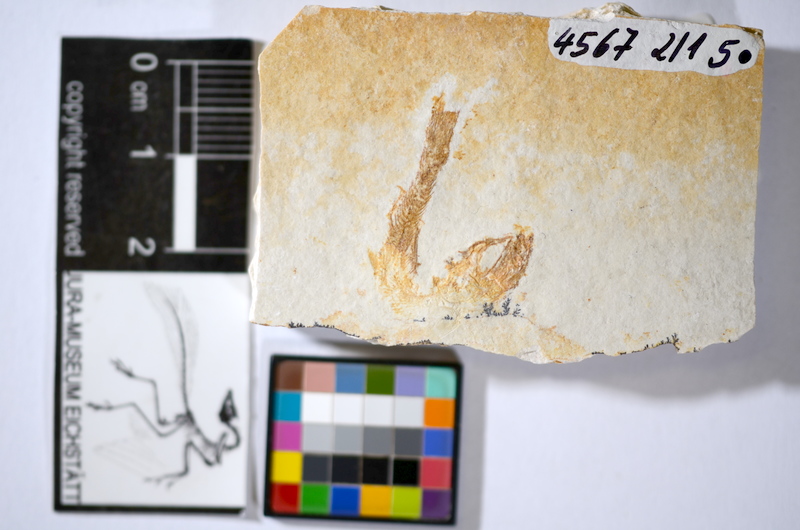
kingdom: Animalia
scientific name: Animalia
